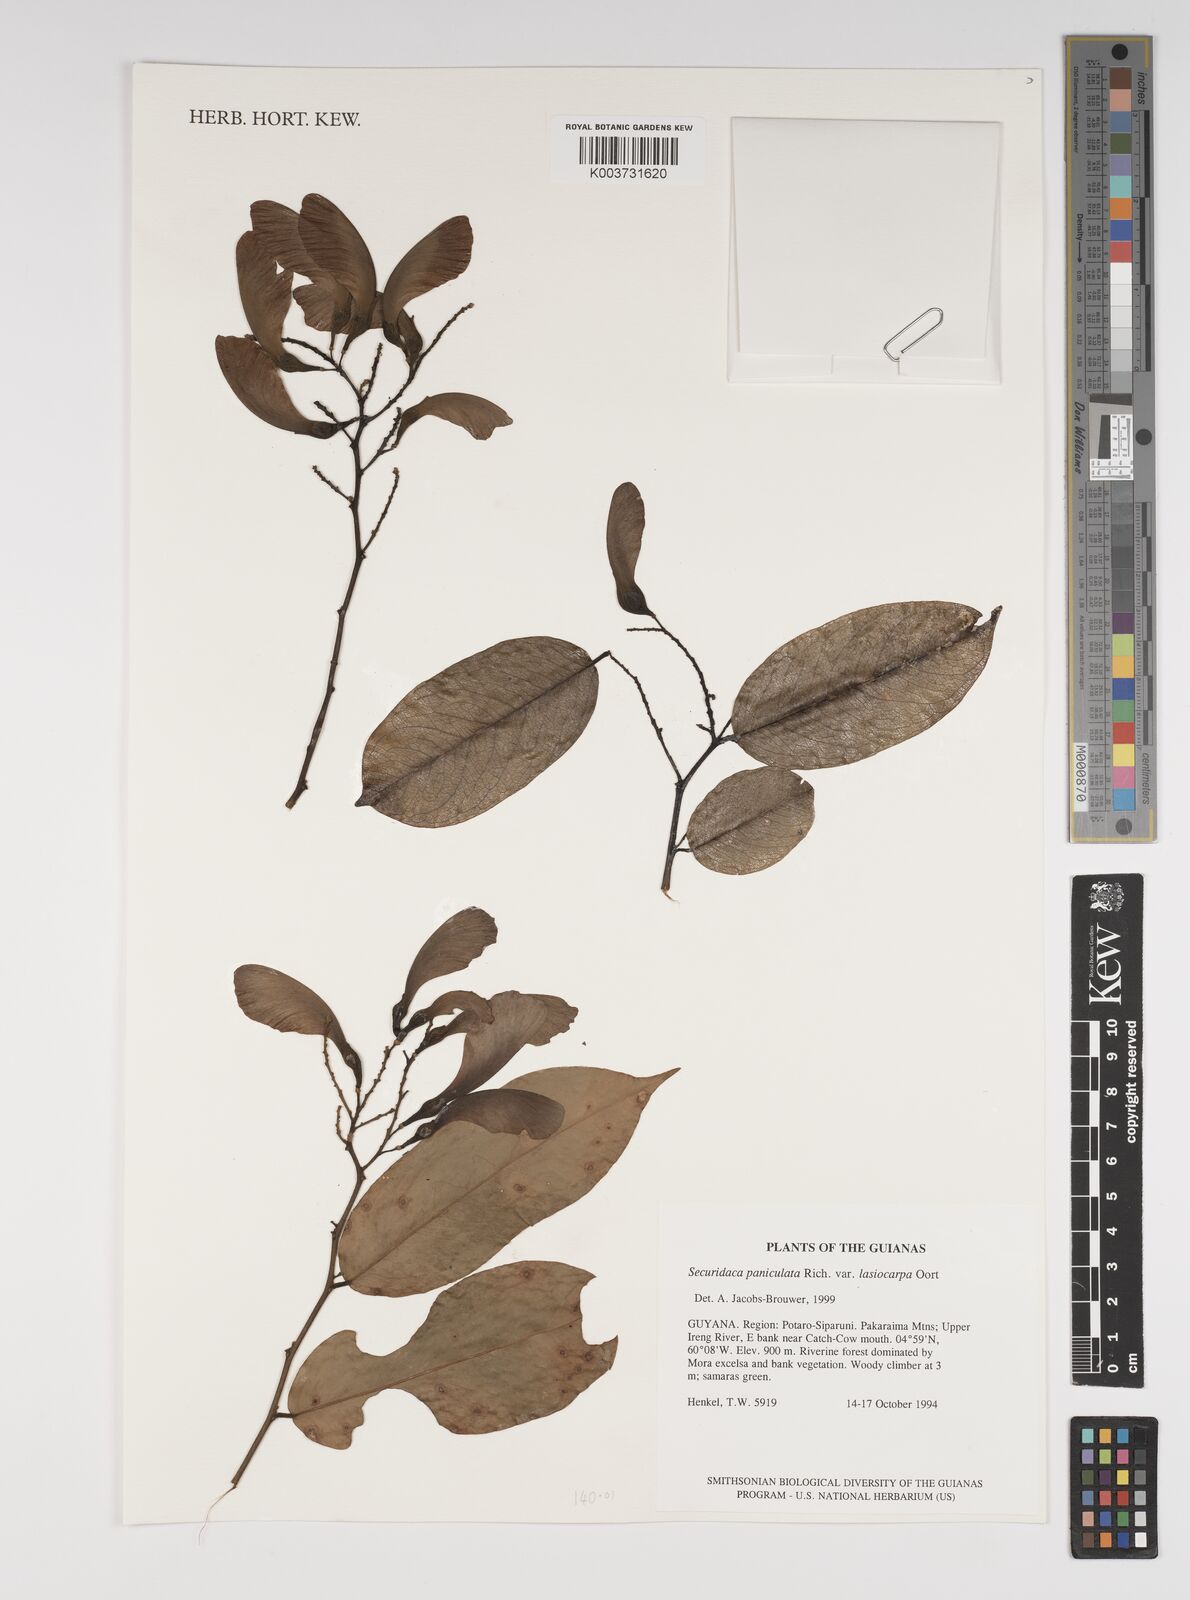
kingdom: Plantae
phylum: Tracheophyta
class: Magnoliopsida
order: Fabales
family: Polygalaceae
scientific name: Polygalaceae
